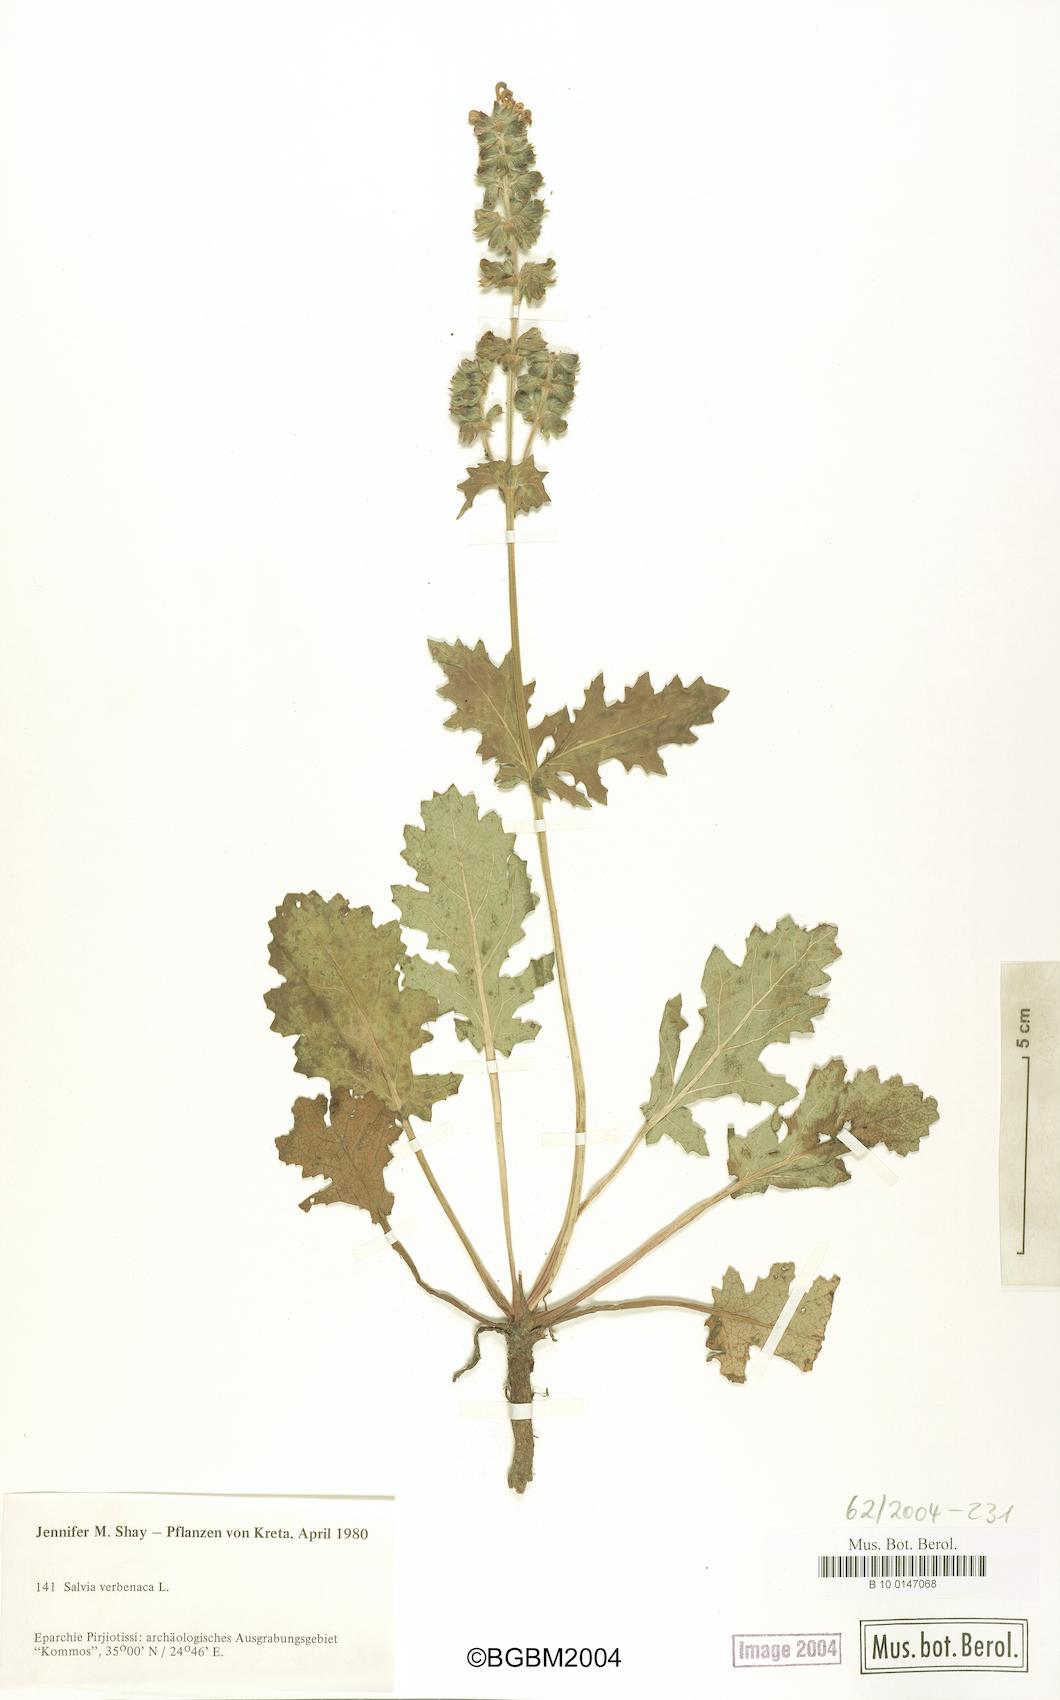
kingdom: Plantae
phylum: Tracheophyta
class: Magnoliopsida
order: Lamiales
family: Lamiaceae
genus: Salvia
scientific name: Salvia verbenaca
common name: Wild clary
